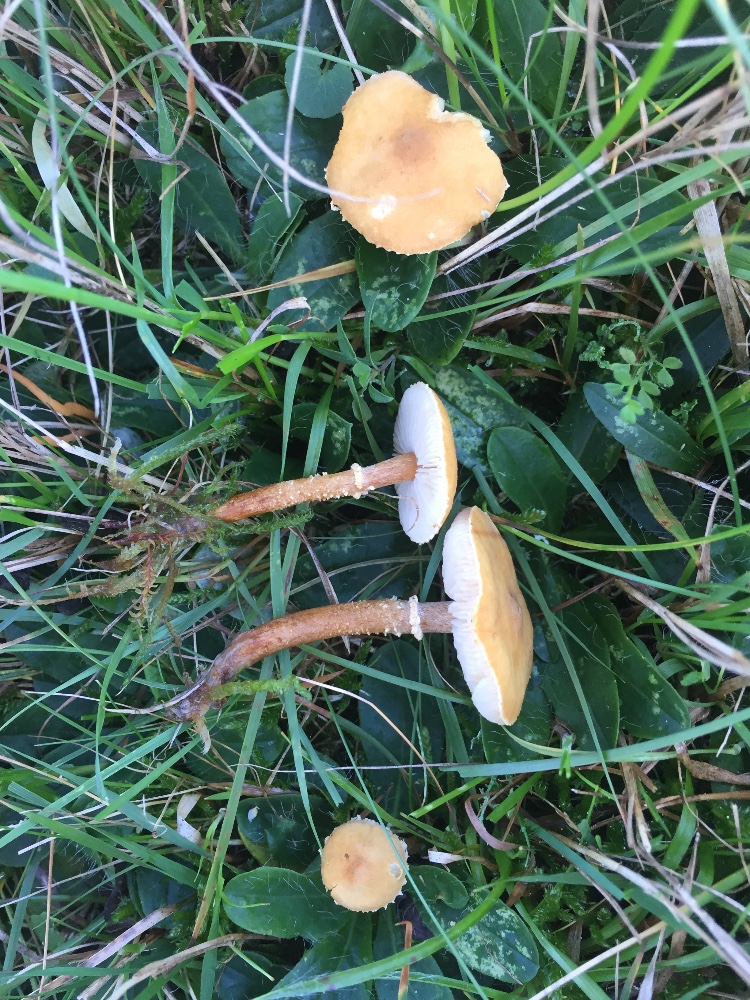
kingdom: Fungi
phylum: Basidiomycota
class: Agaricomycetes
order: Agaricales
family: Tricholomataceae
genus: Cystoderma
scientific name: Cystoderma amianthinum
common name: okkergul grynhat
